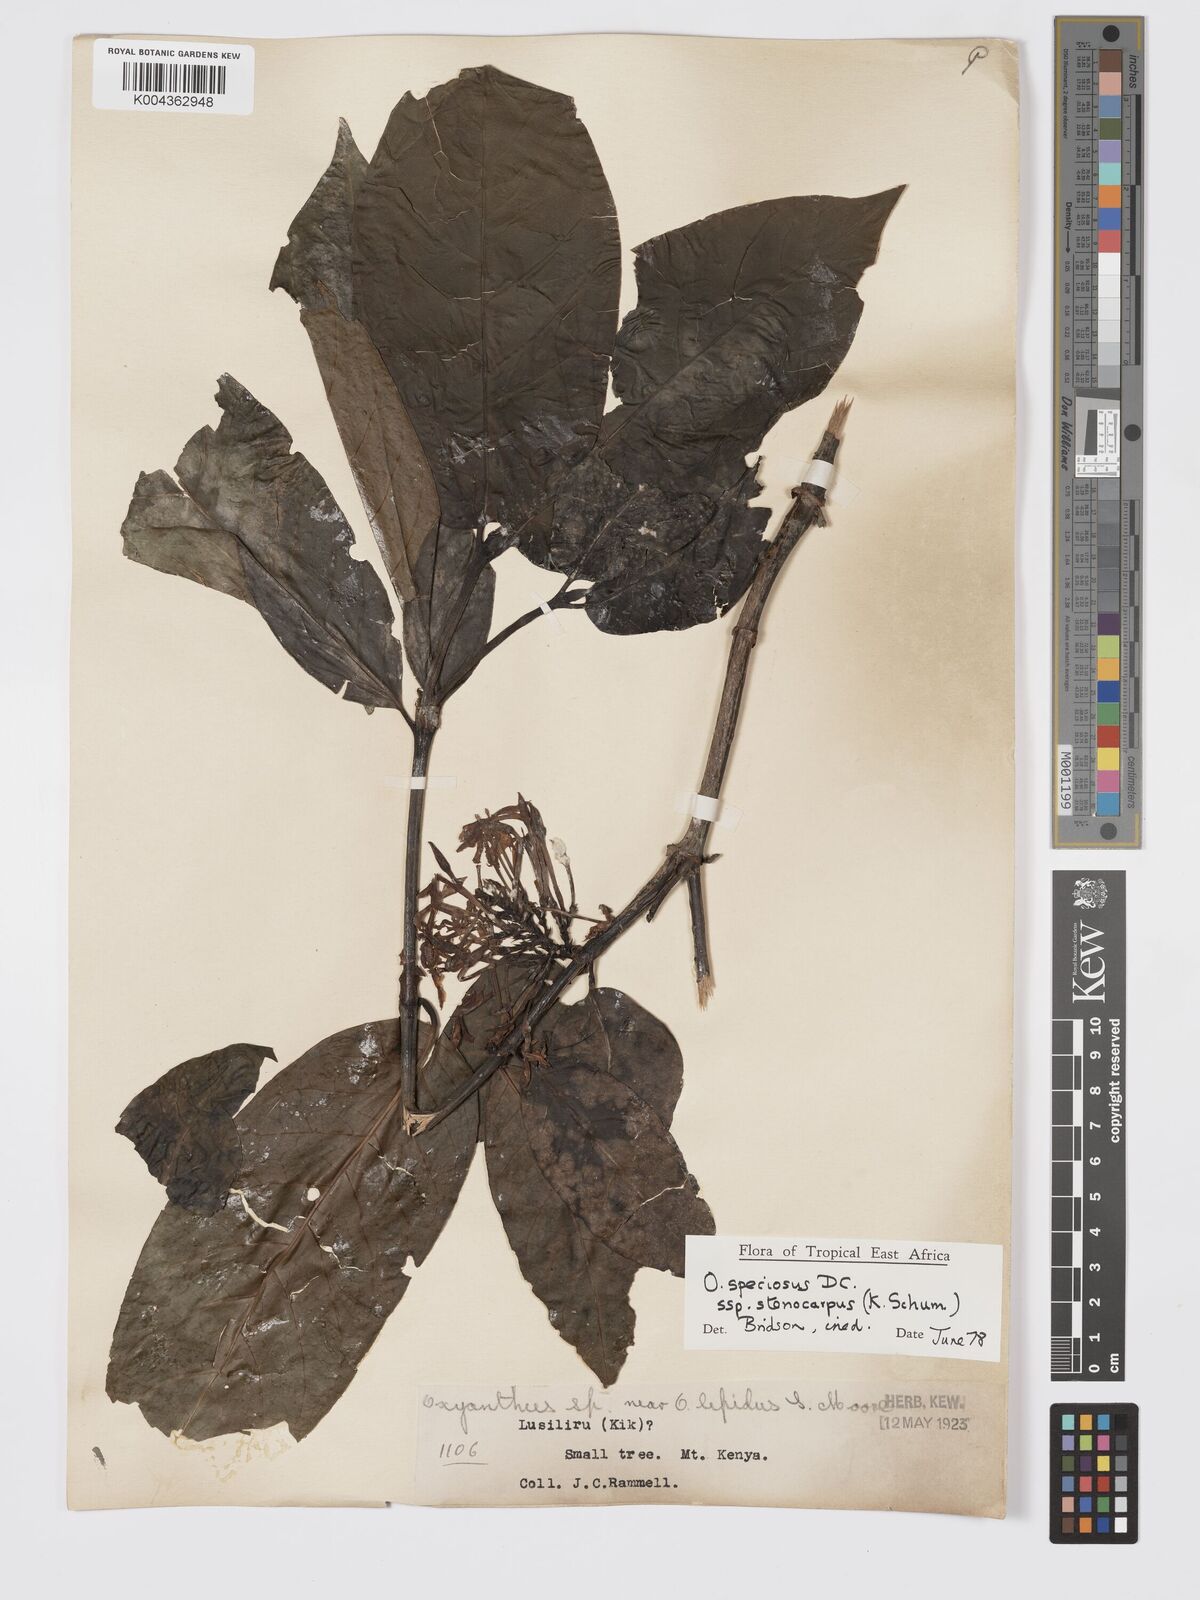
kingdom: Plantae
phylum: Tracheophyta
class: Magnoliopsida
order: Gentianales
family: Rubiaceae
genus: Oxyanthus
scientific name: Oxyanthus speciosus
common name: Whipstick loquat
